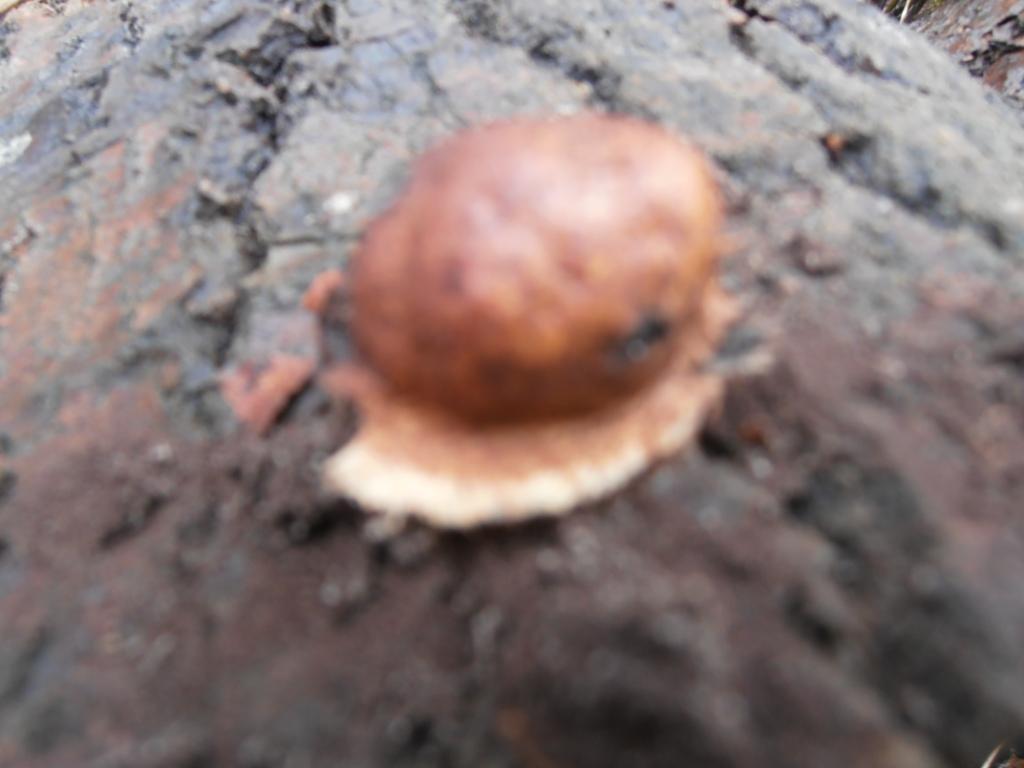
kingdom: Protozoa
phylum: Mycetozoa
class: Myxomycetes
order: Physarales
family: Physaraceae
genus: Fuligo
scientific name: Fuligo leviderma
